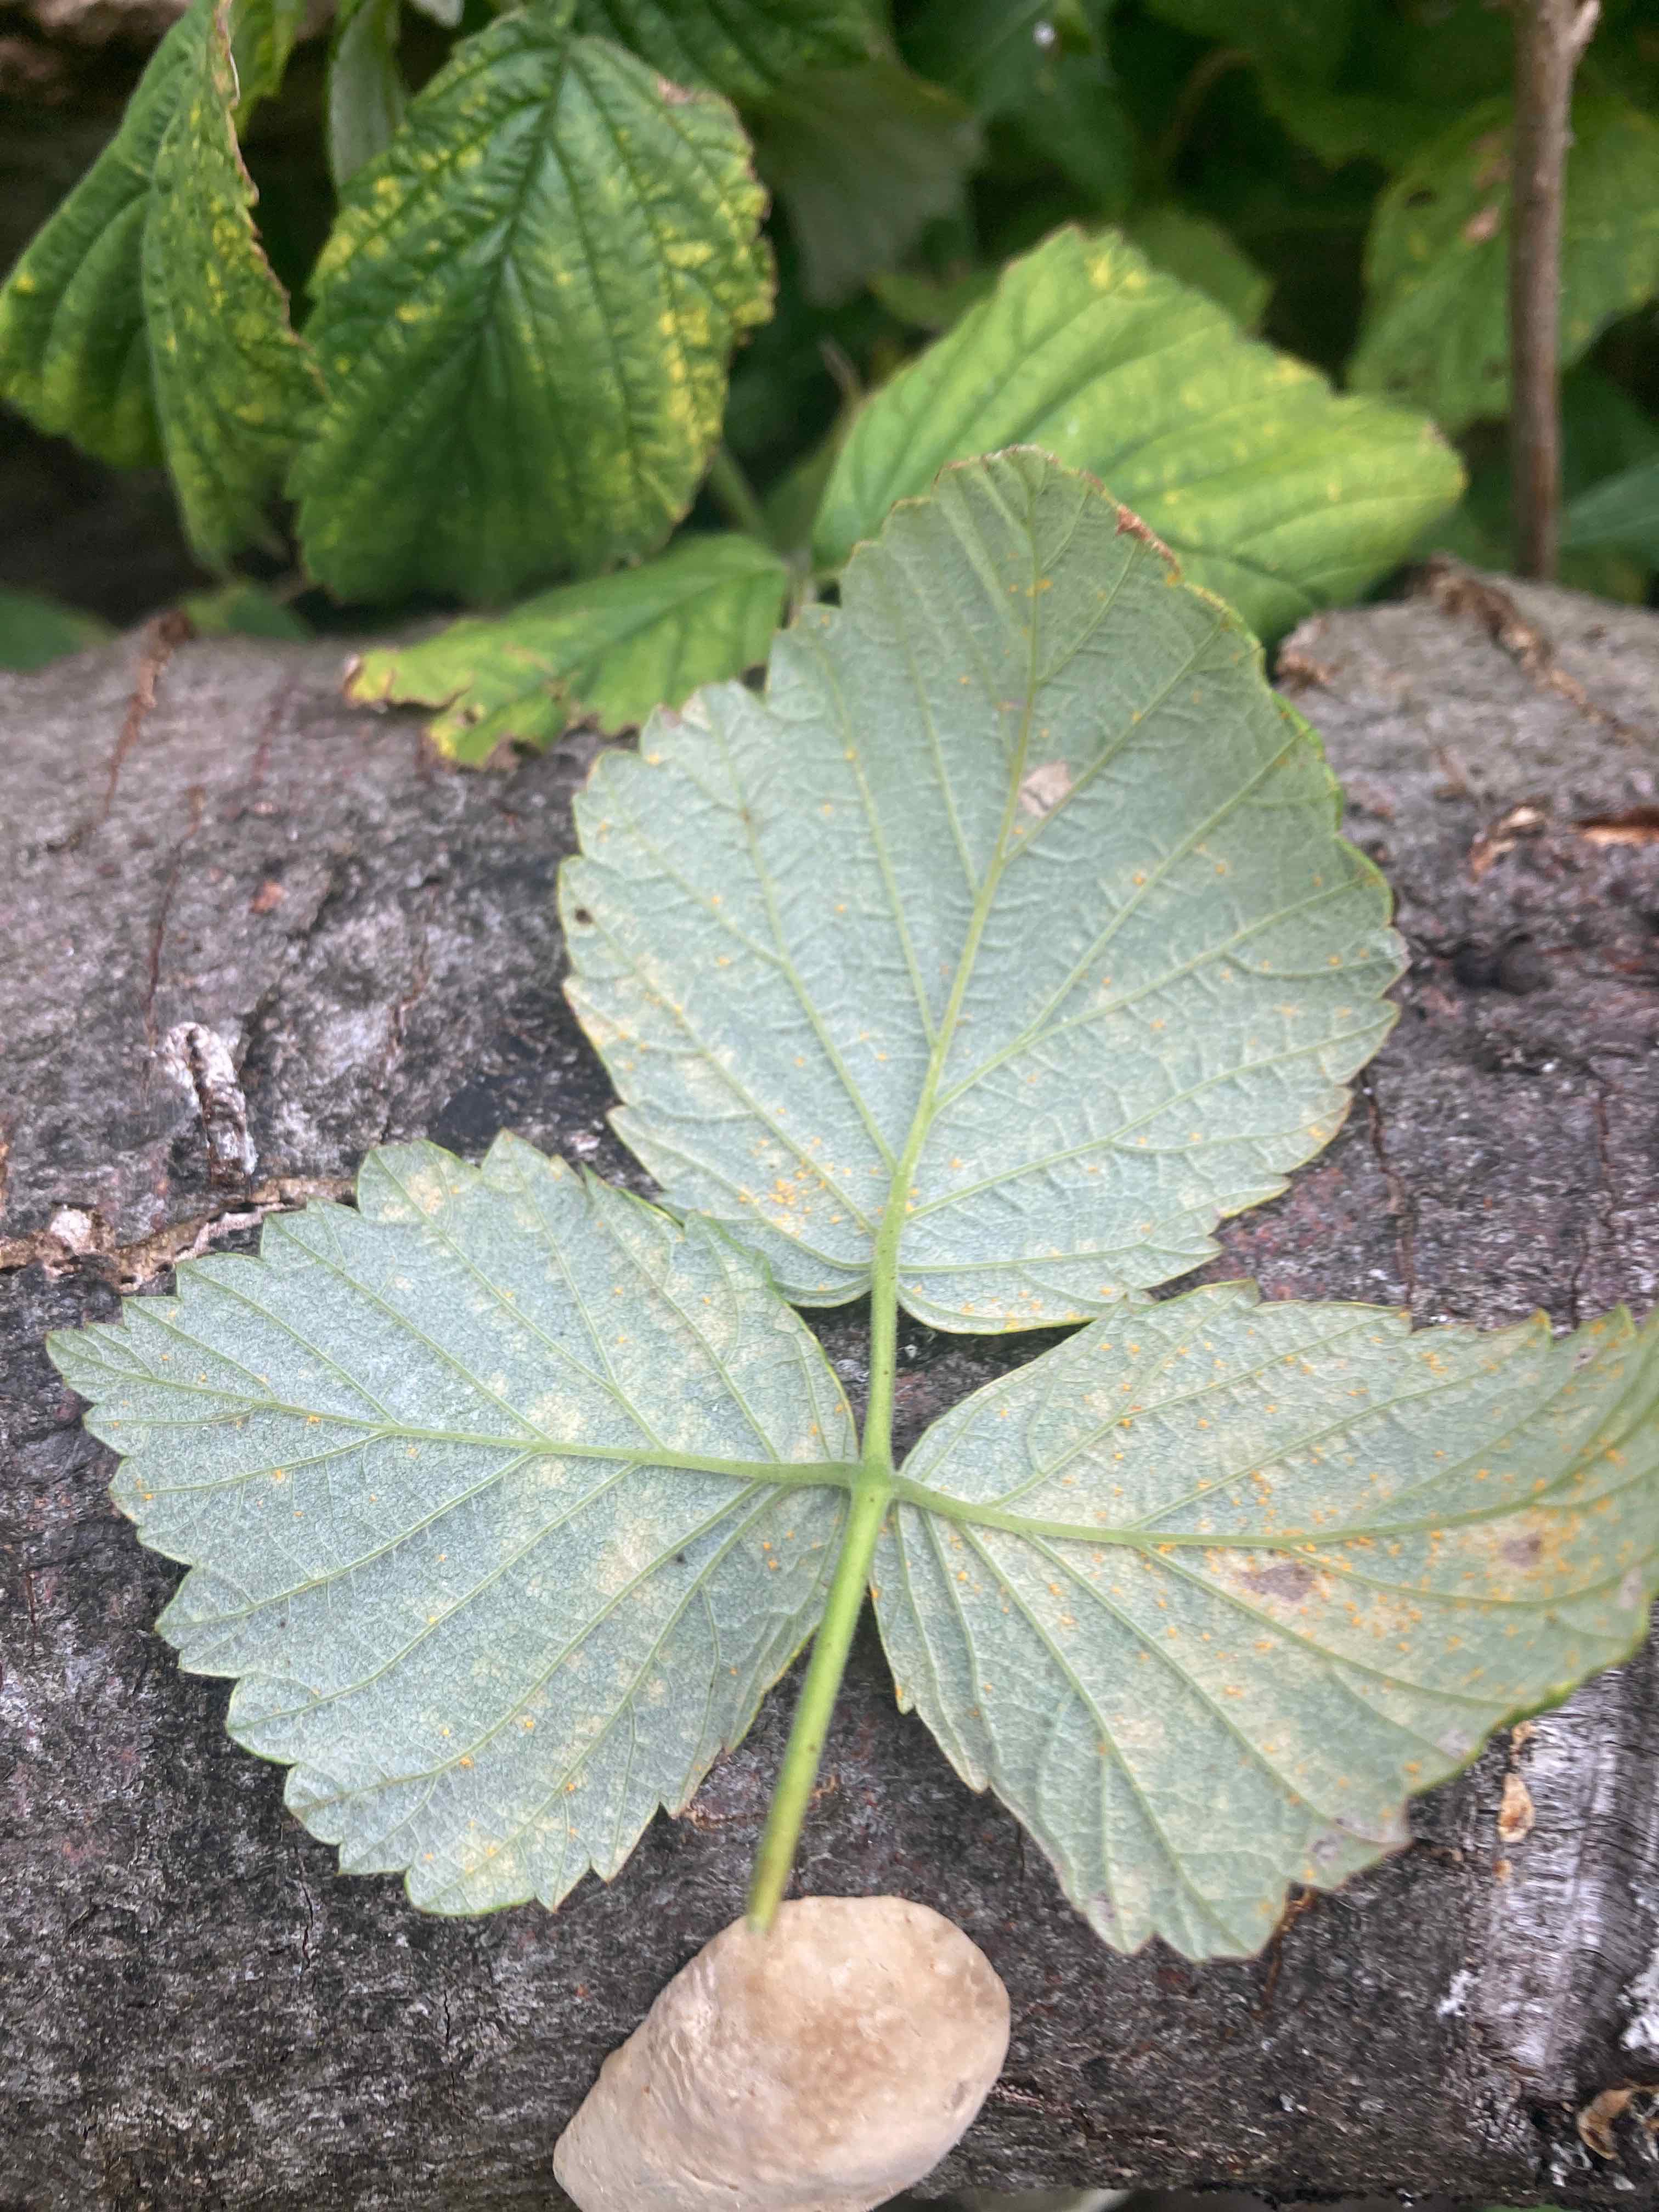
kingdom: Fungi
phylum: Basidiomycota
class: Pucciniomycetes
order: Pucciniales
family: Phragmidiaceae
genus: Phragmidium
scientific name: Phragmidium rubi-idaei
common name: hindbær-flercellerust
